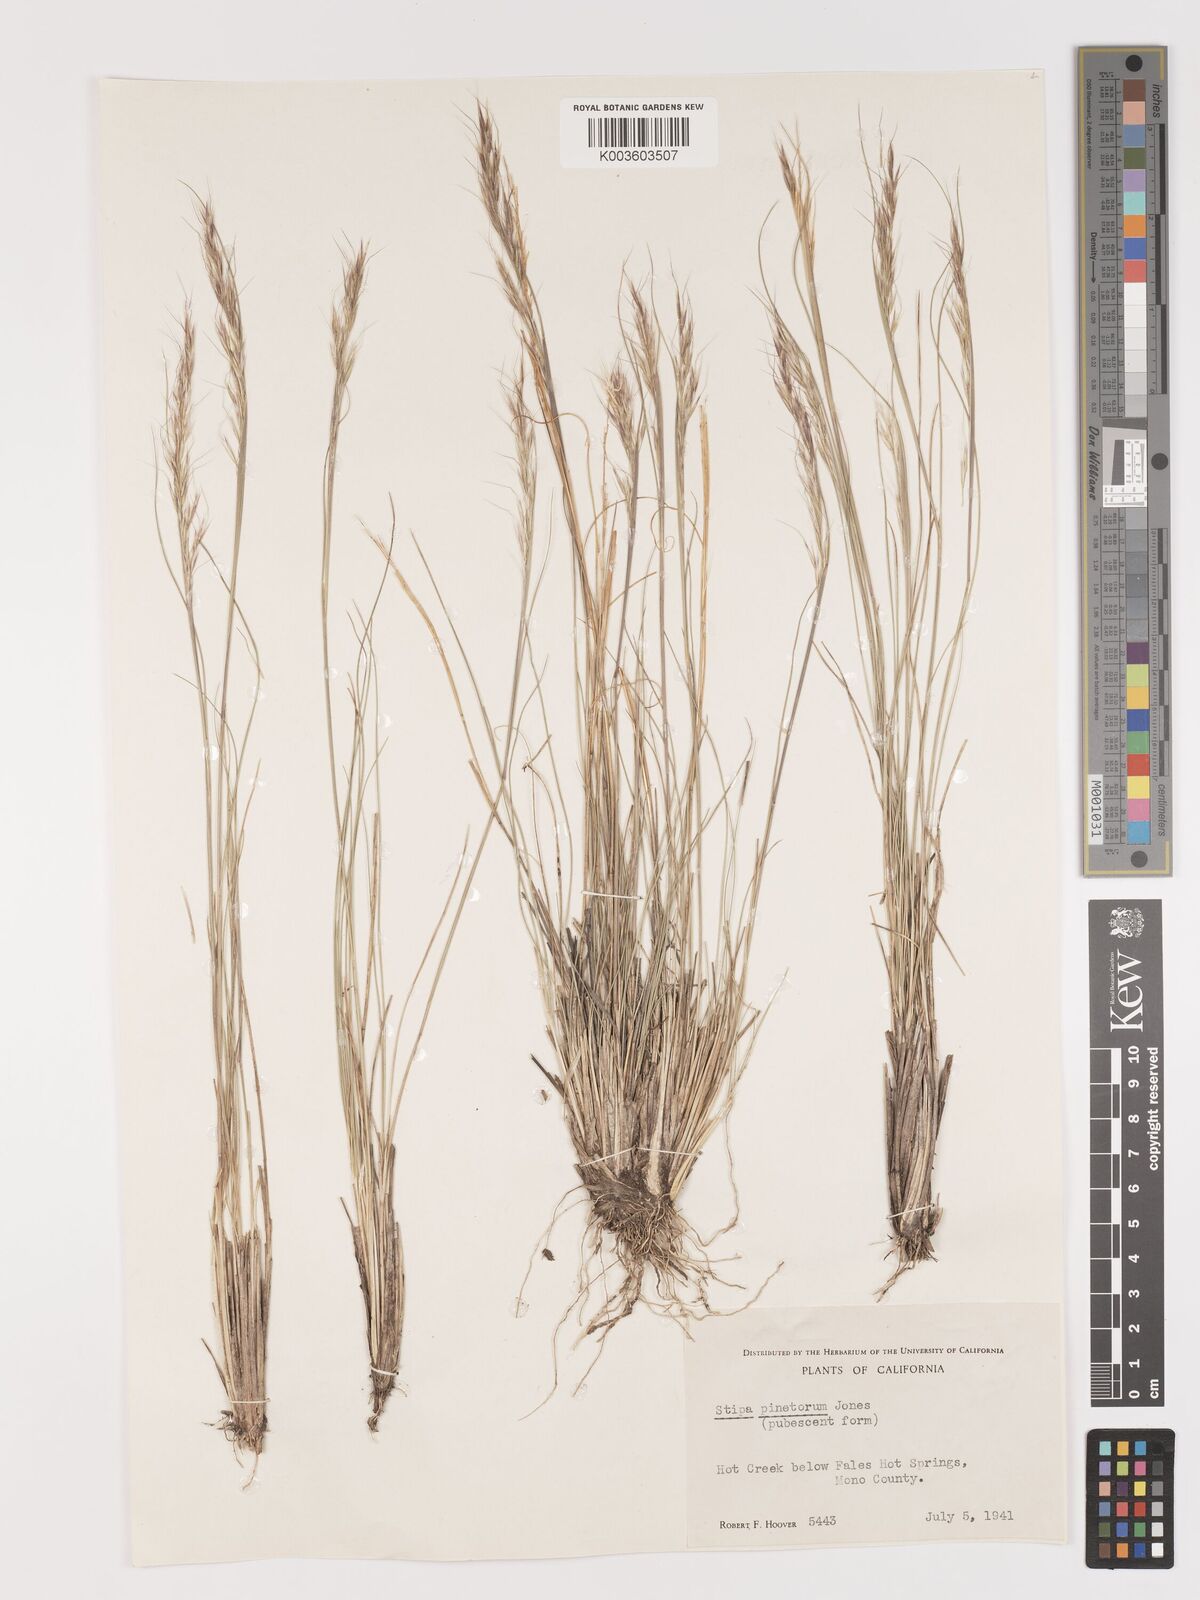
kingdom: Plantae
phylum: Tracheophyta
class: Liliopsida
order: Poales
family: Poaceae
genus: Eriocoma
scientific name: Eriocoma pinetorum
